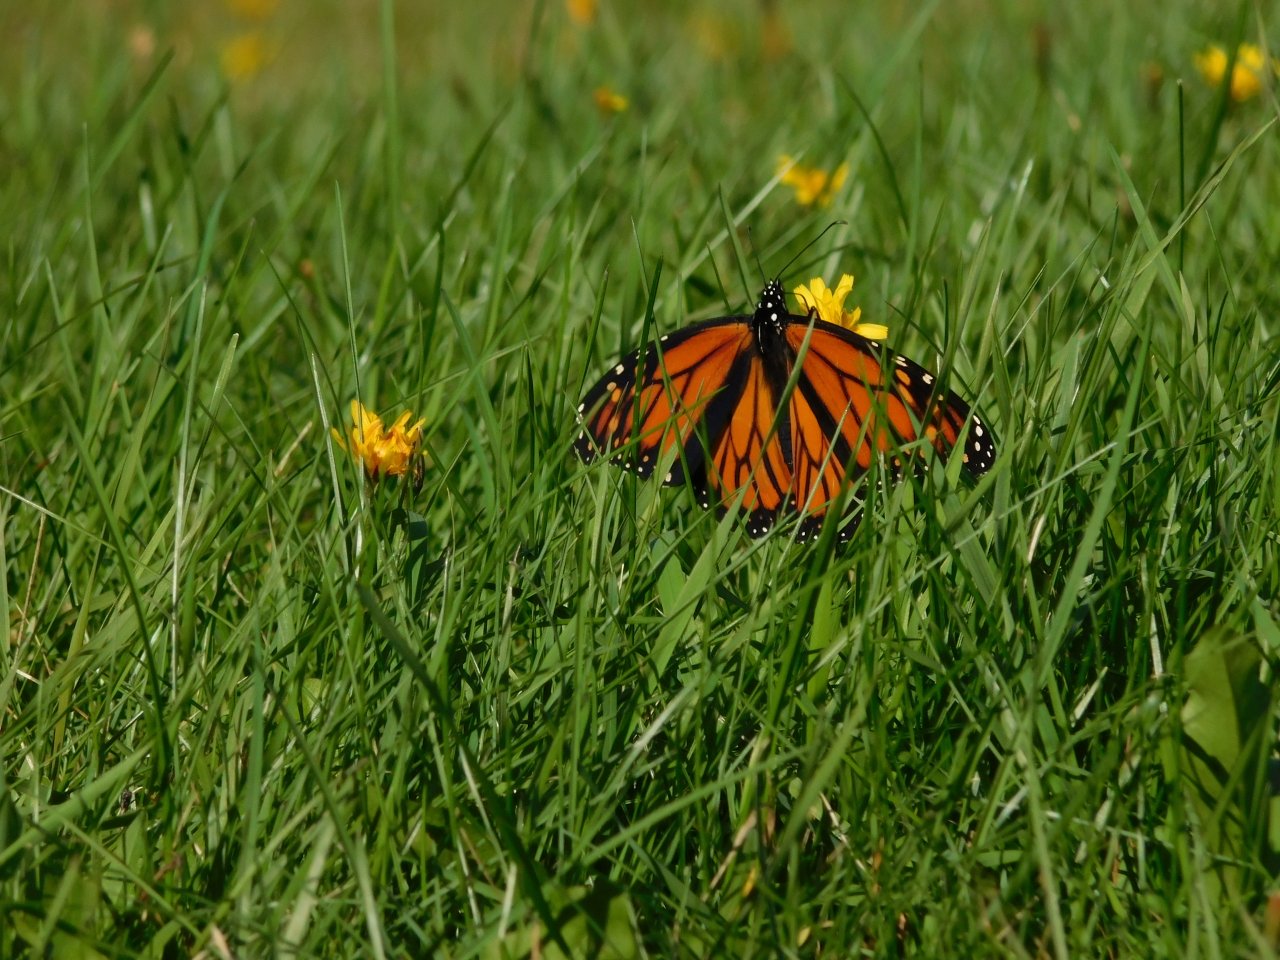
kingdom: Animalia
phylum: Arthropoda
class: Insecta
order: Lepidoptera
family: Nymphalidae
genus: Danaus
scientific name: Danaus plexippus
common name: Monarch
